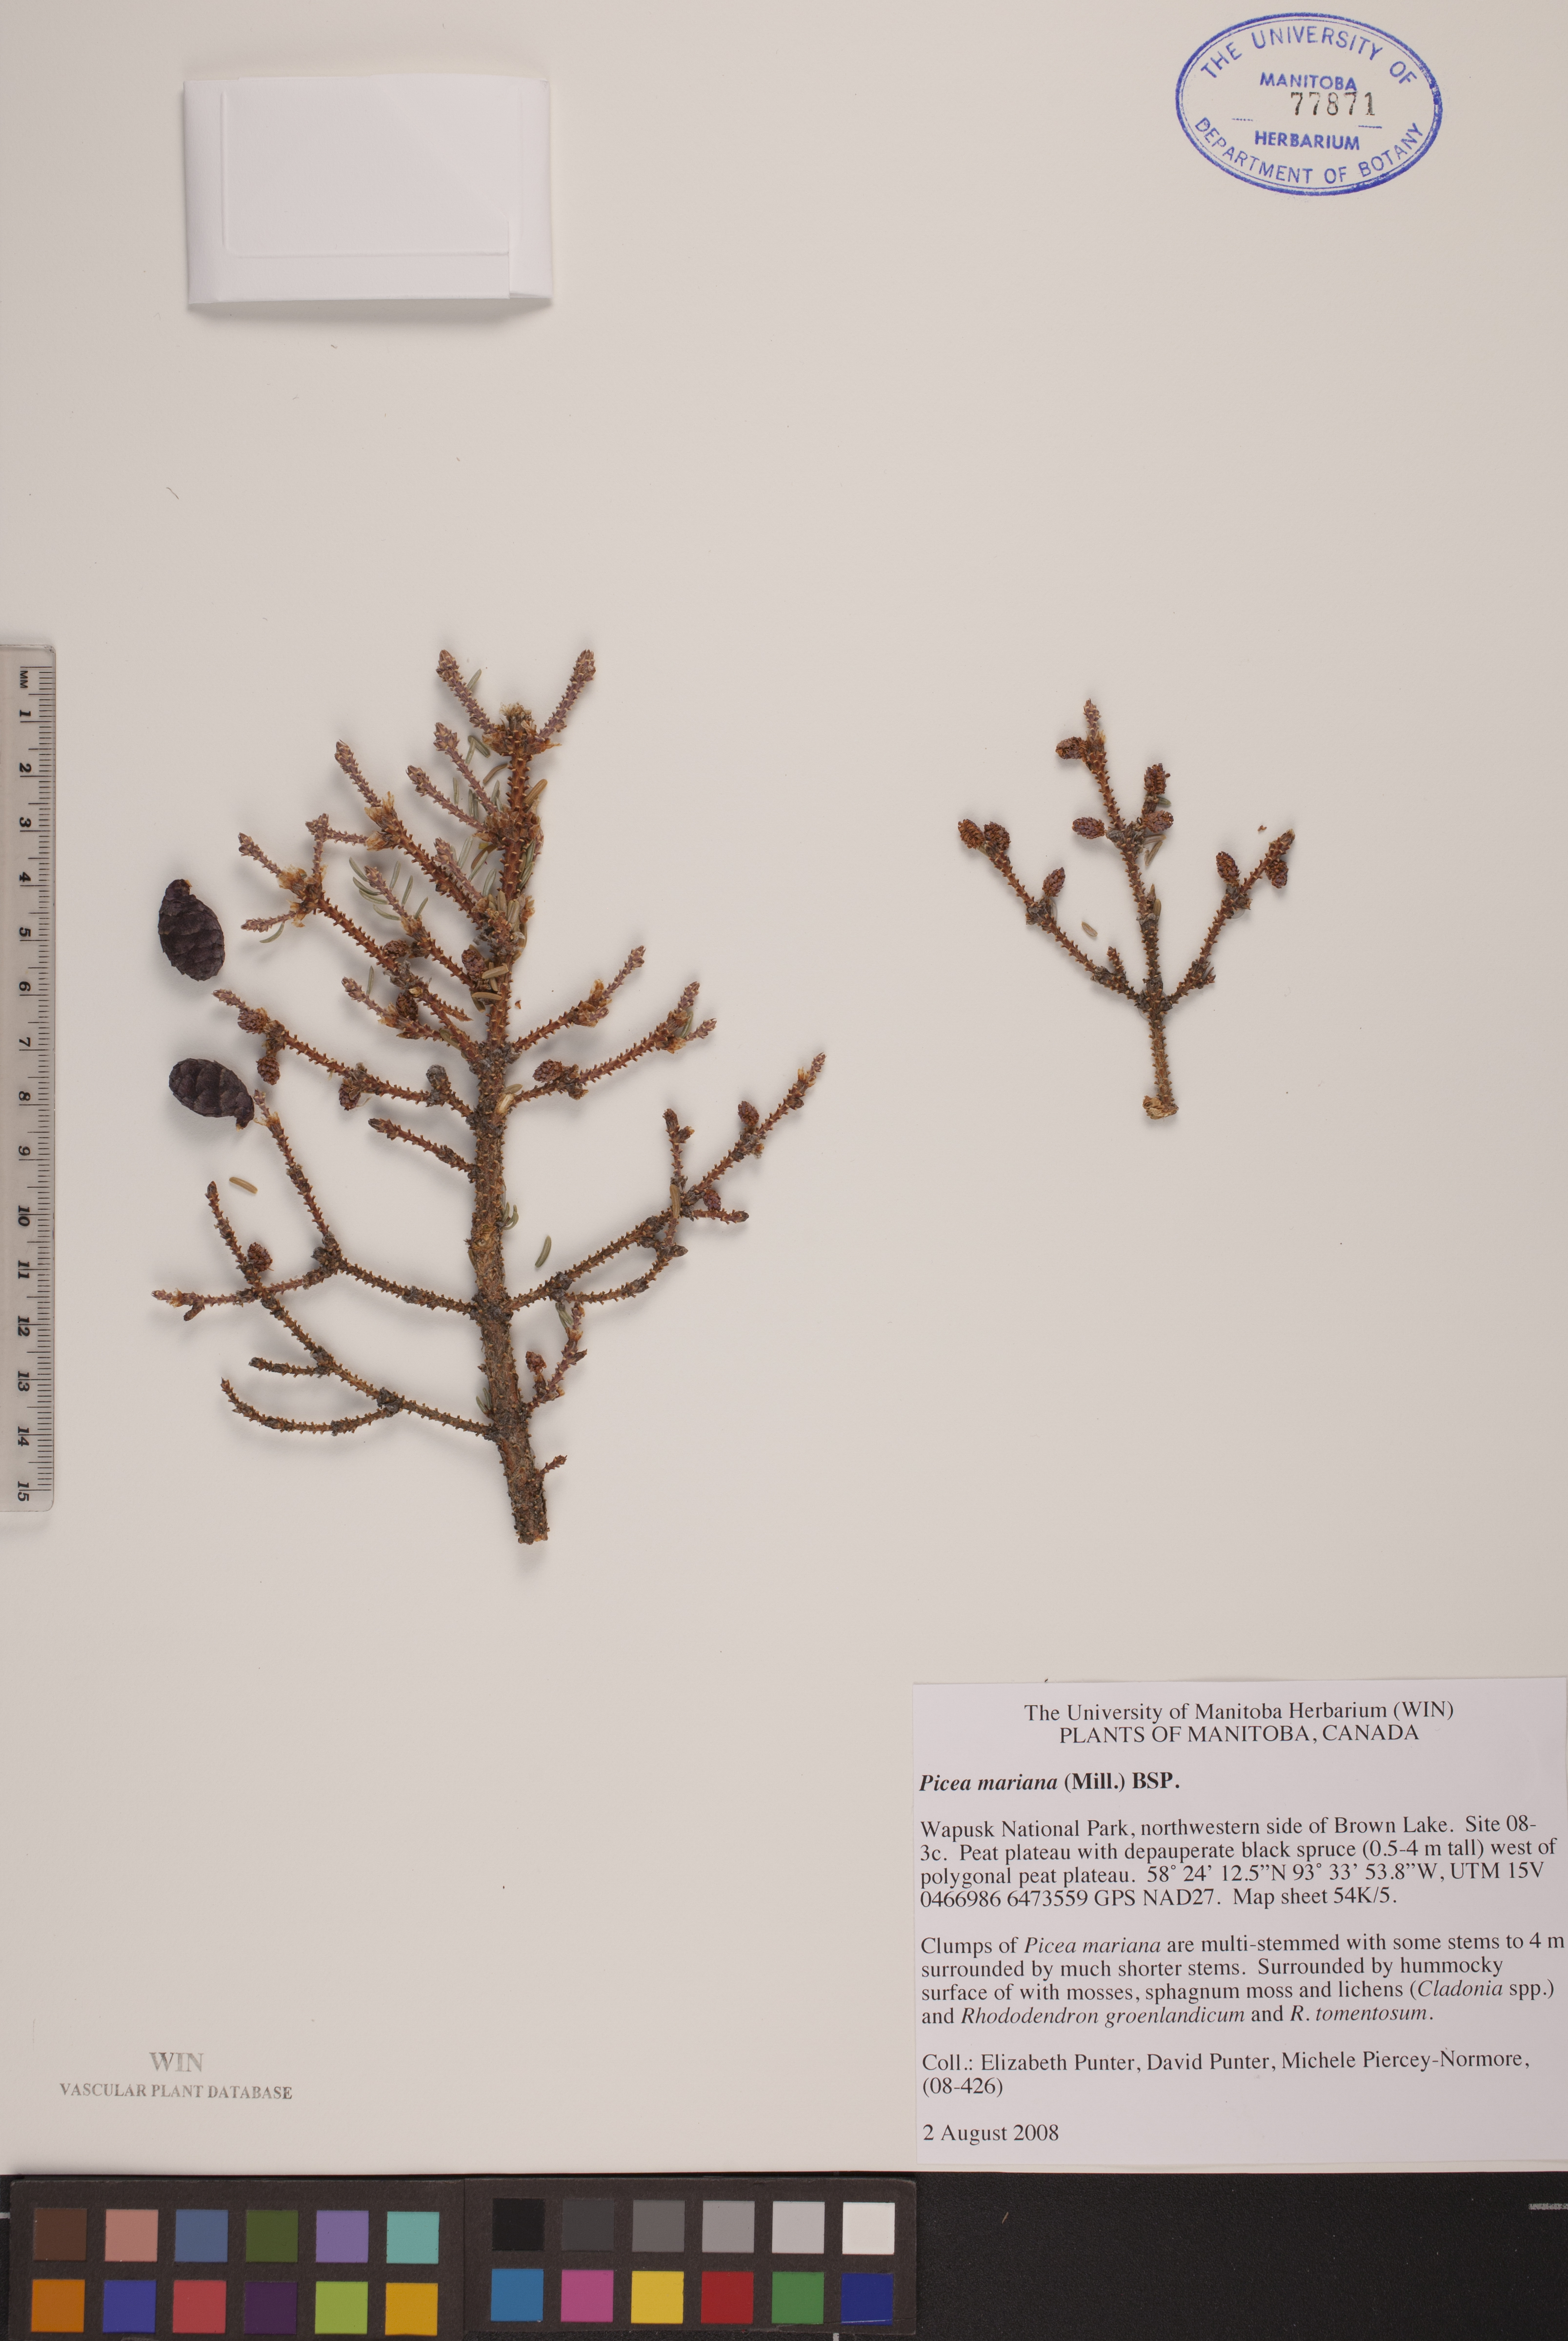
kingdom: Plantae
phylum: Tracheophyta
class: Pinopsida
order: Pinales
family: Pinaceae
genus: Picea
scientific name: Picea mariana
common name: Black spruce
